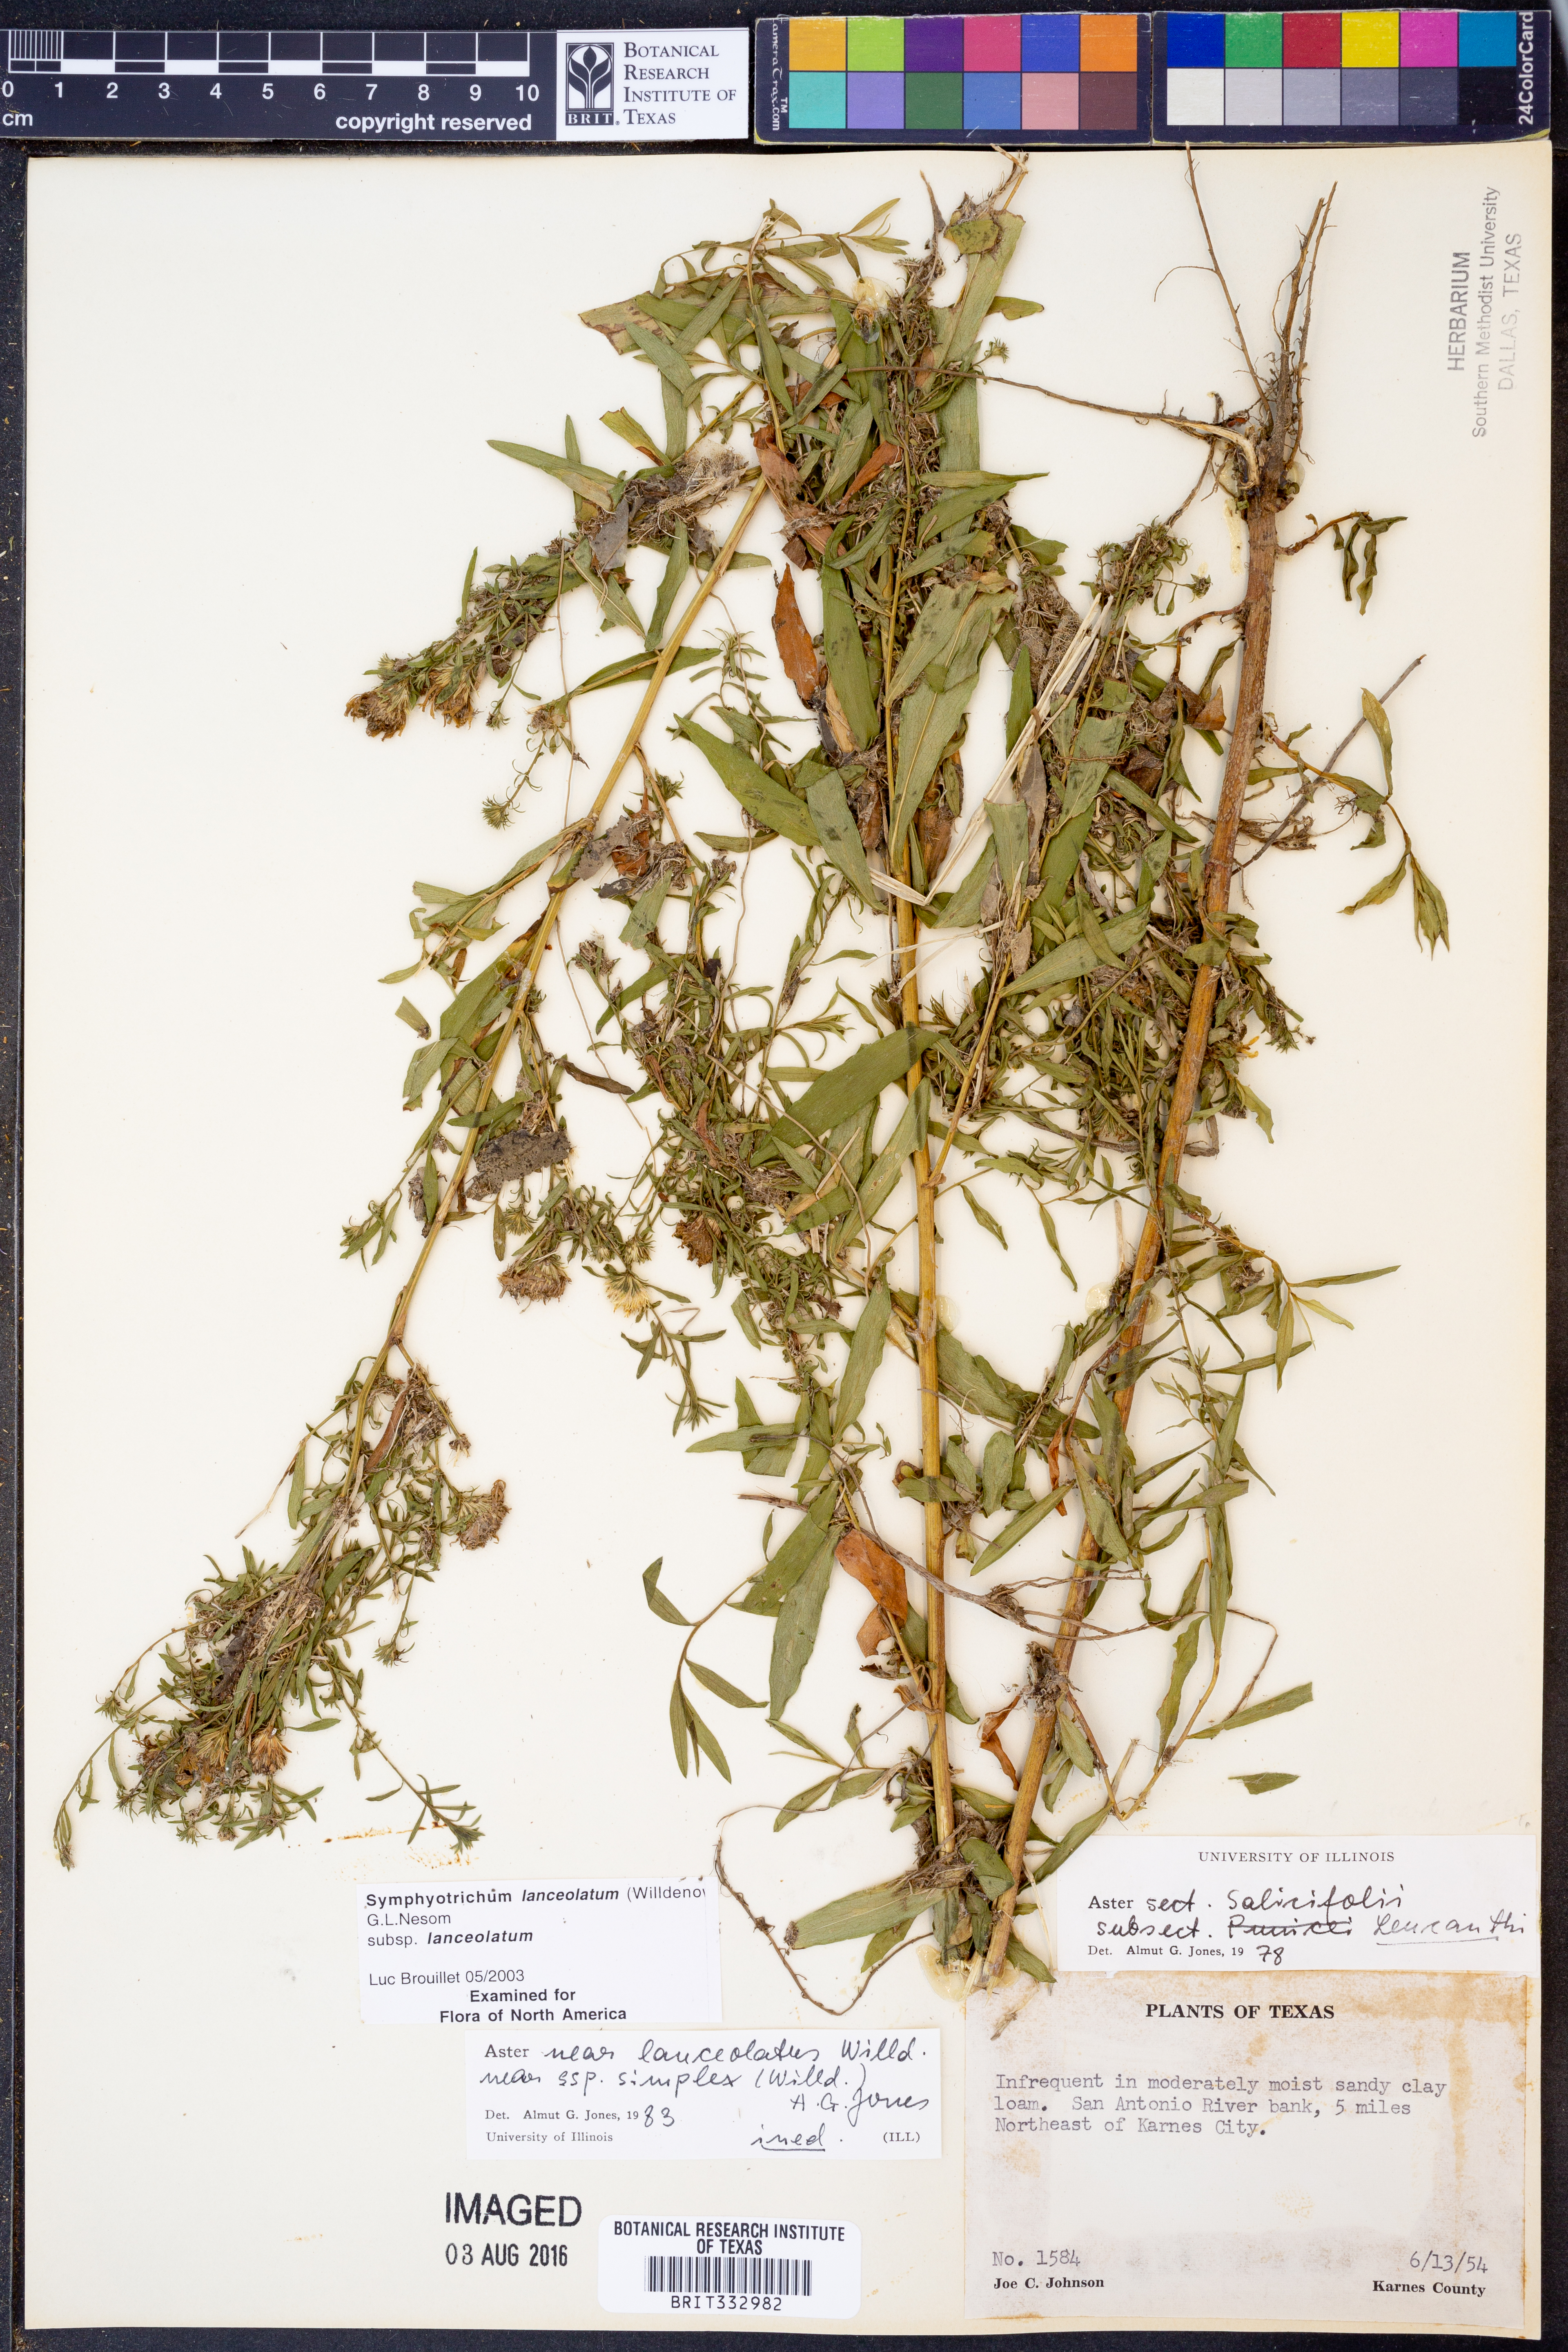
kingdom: Plantae
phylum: Tracheophyta
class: Magnoliopsida
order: Asterales
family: Asteraceae
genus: Symphyotrichum
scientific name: Symphyotrichum lanceolatum
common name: Panicled aster
